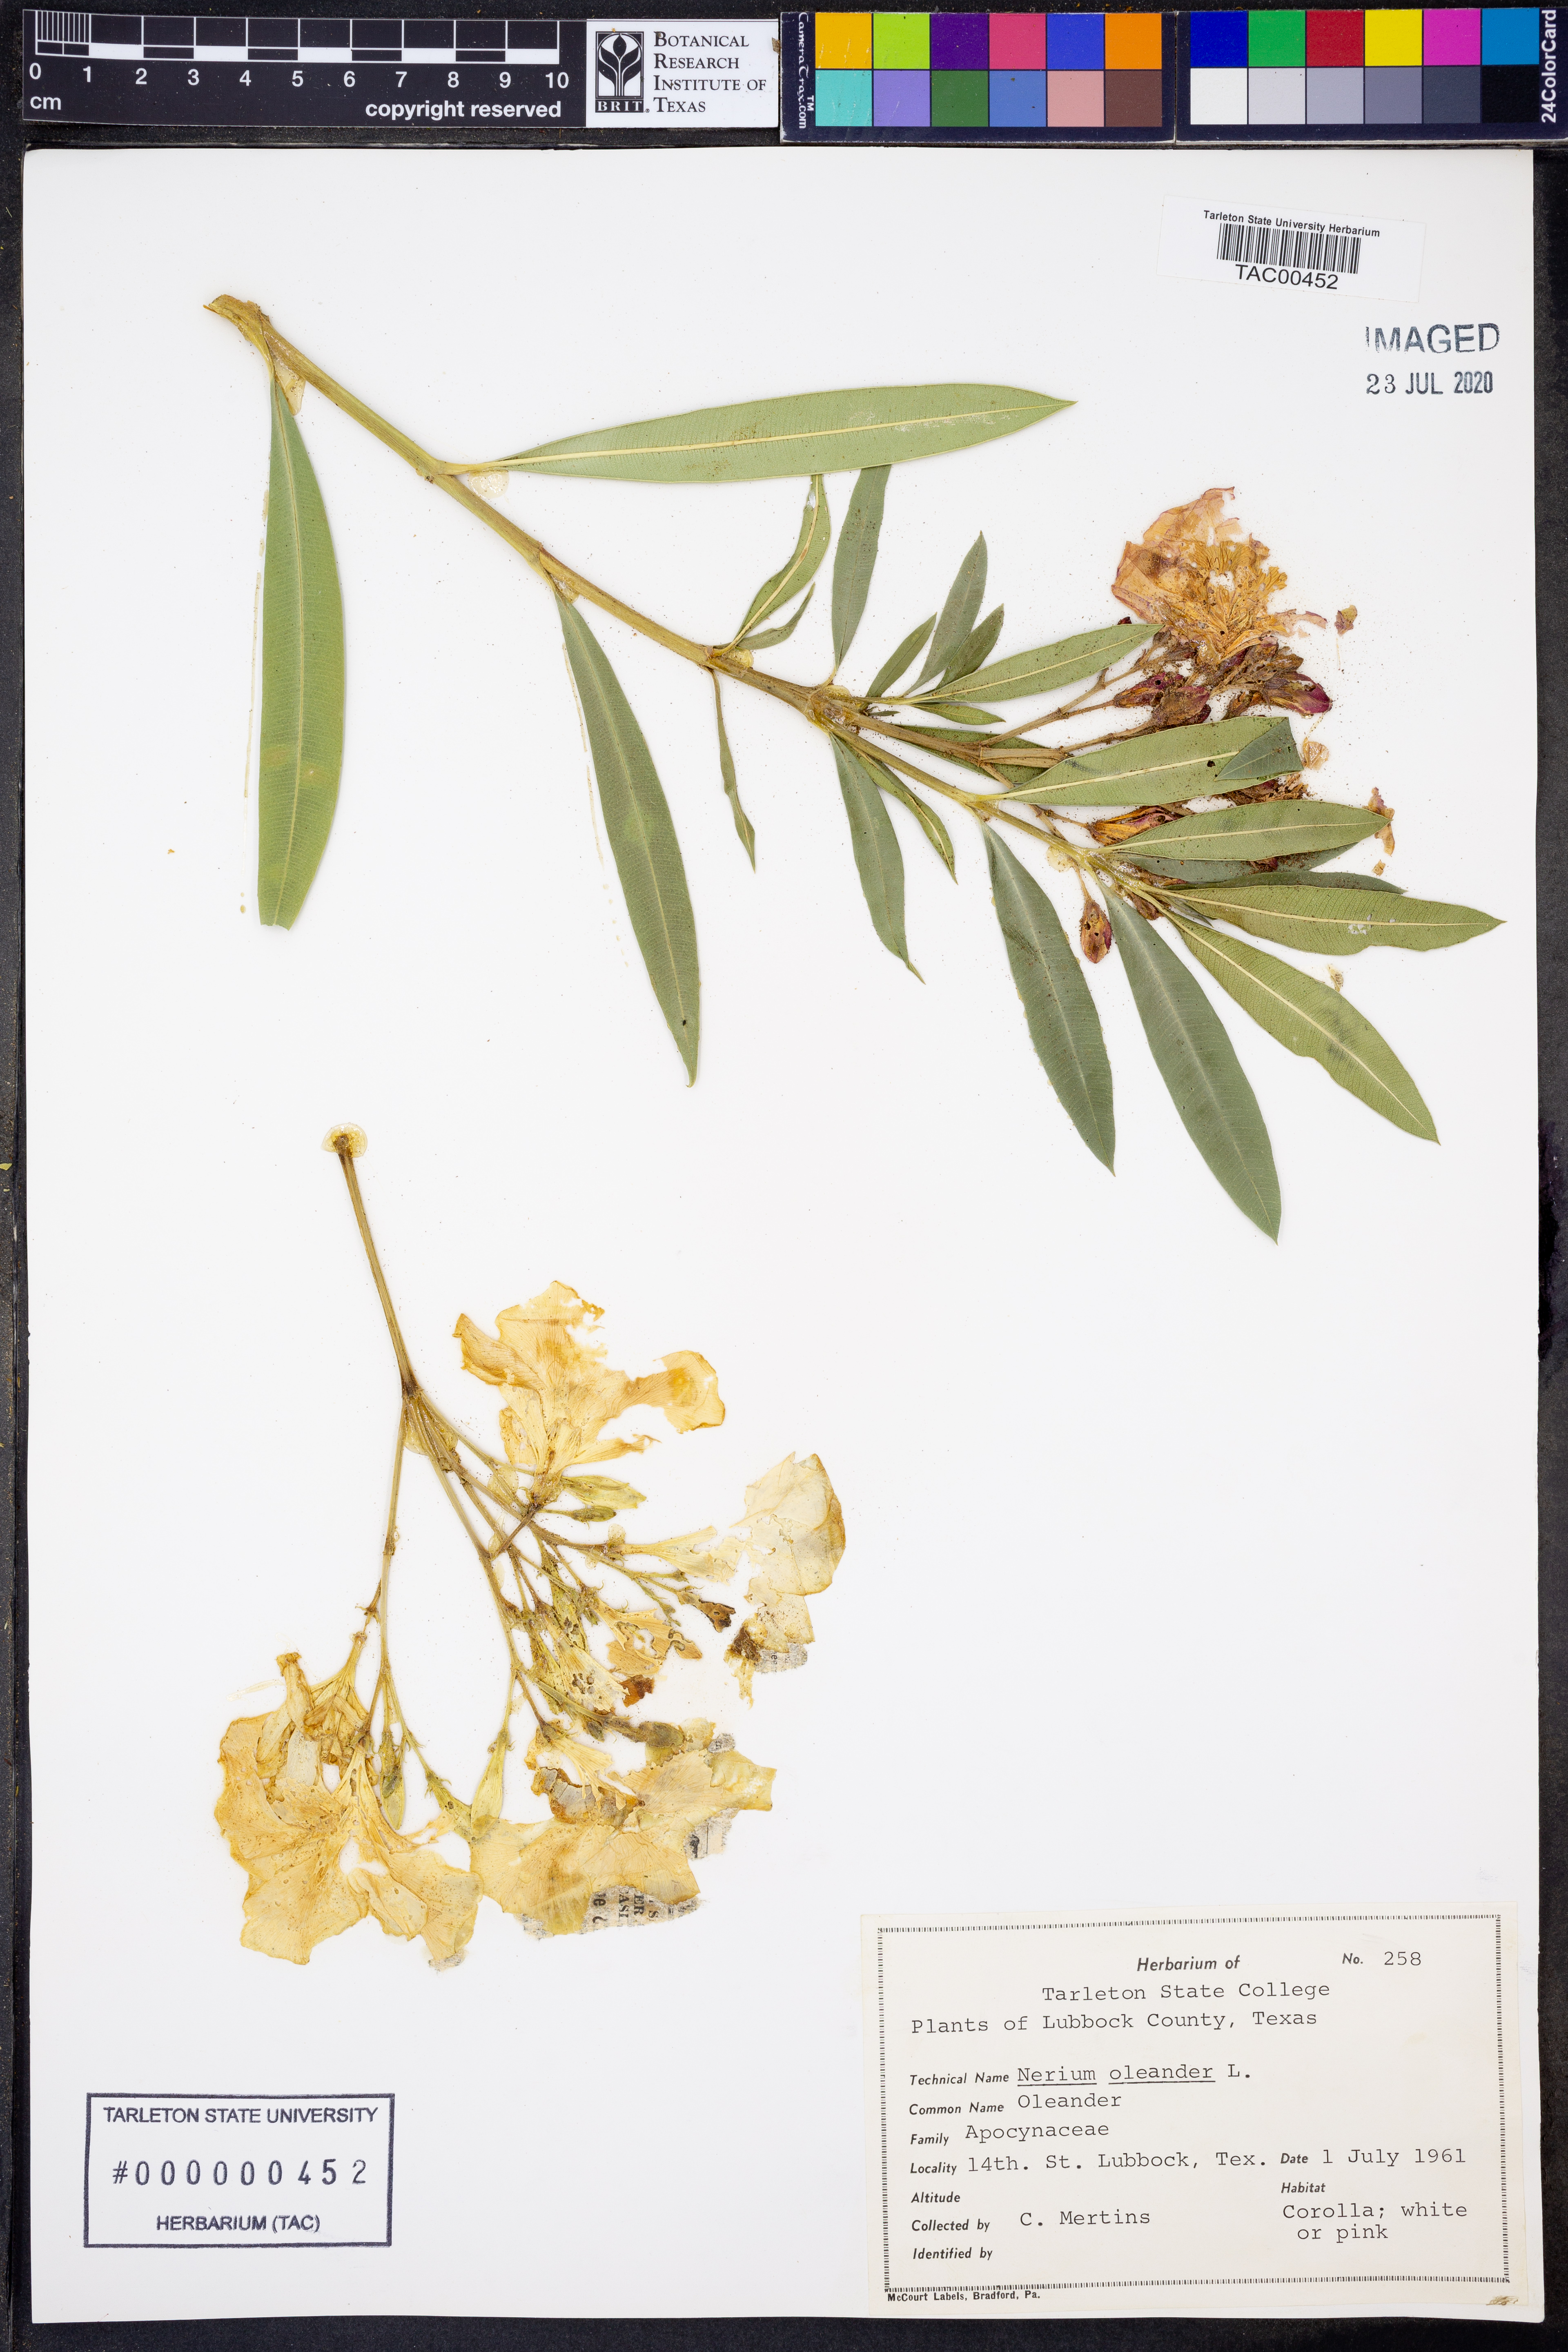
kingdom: Plantae
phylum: Tracheophyta
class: Magnoliopsida
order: Gentianales
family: Apocynaceae
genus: Nerium
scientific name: Nerium oleander
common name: Oleander
